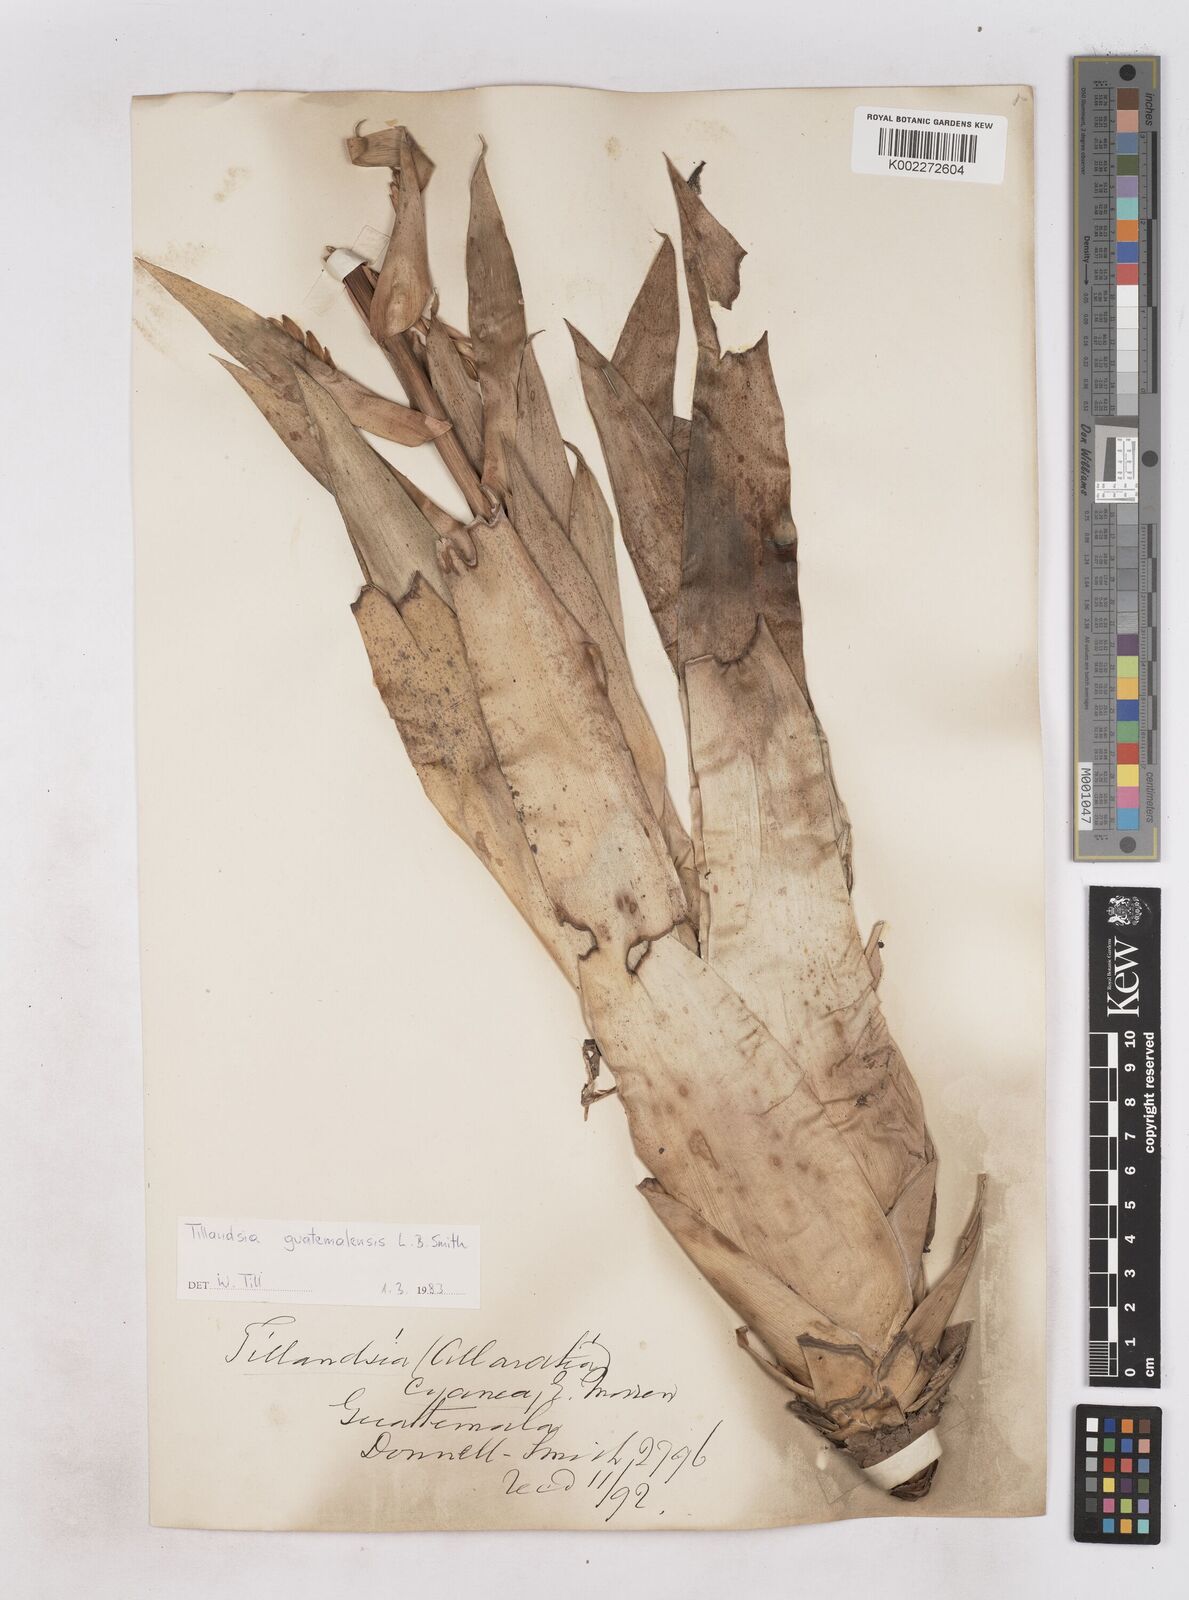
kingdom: Plantae
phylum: Tracheophyta
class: Liliopsida
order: Poales
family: Bromeliaceae
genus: Tillandsia
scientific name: Tillandsia guatemalensis
